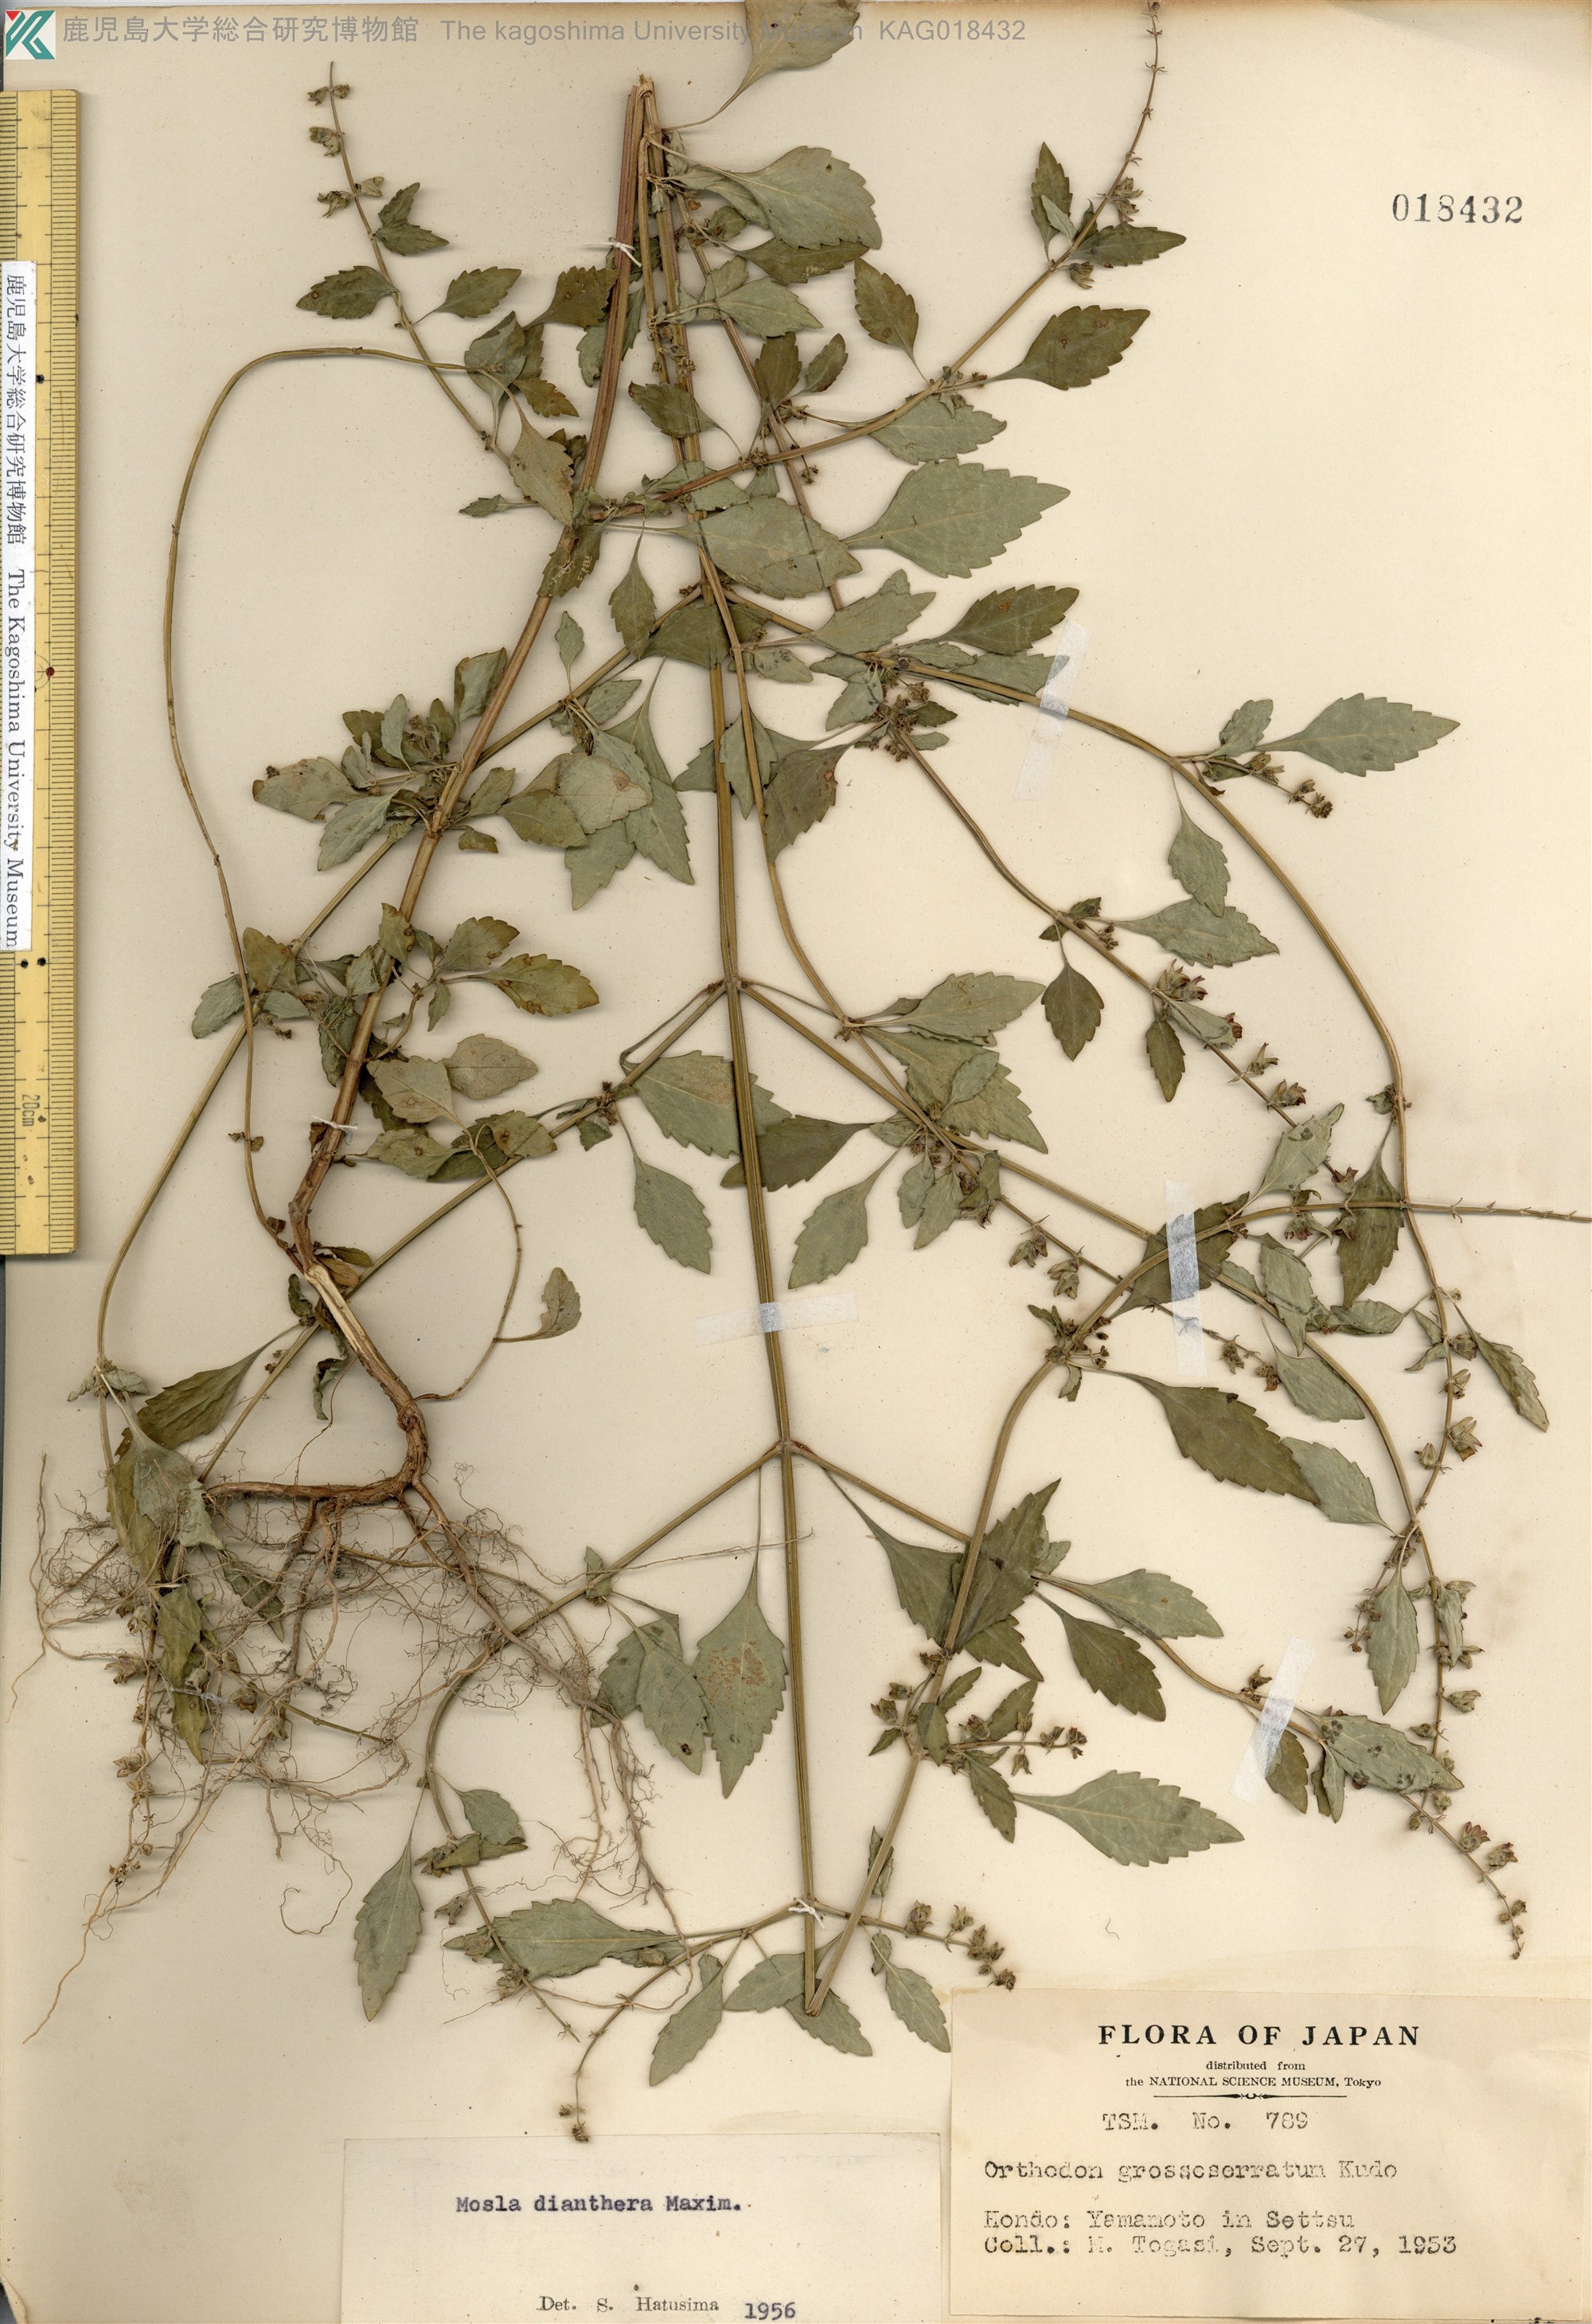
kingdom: Plantae
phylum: Tracheophyta
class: Magnoliopsida
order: Lamiales
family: Lamiaceae
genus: Mosla
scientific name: Mosla dianthera
